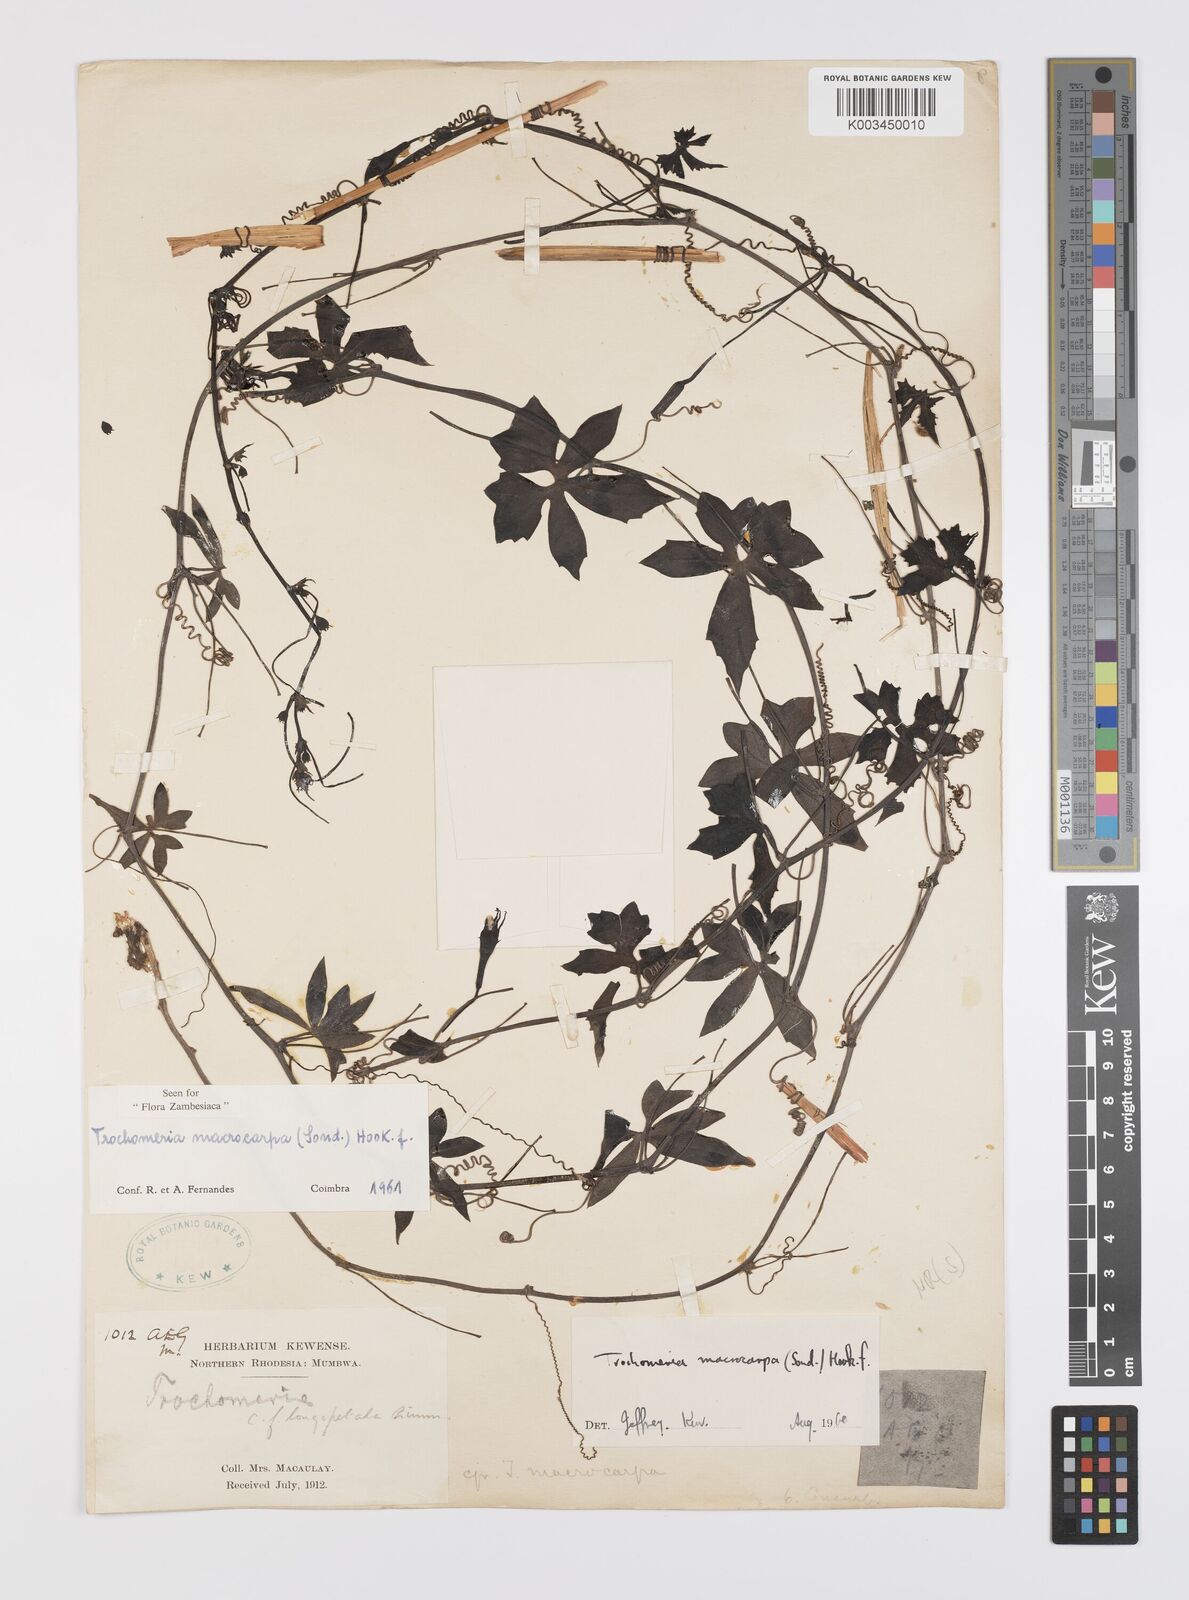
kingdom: Plantae
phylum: Tracheophyta
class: Magnoliopsida
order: Cucurbitales
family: Cucurbitaceae
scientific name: Cucurbitaceae
